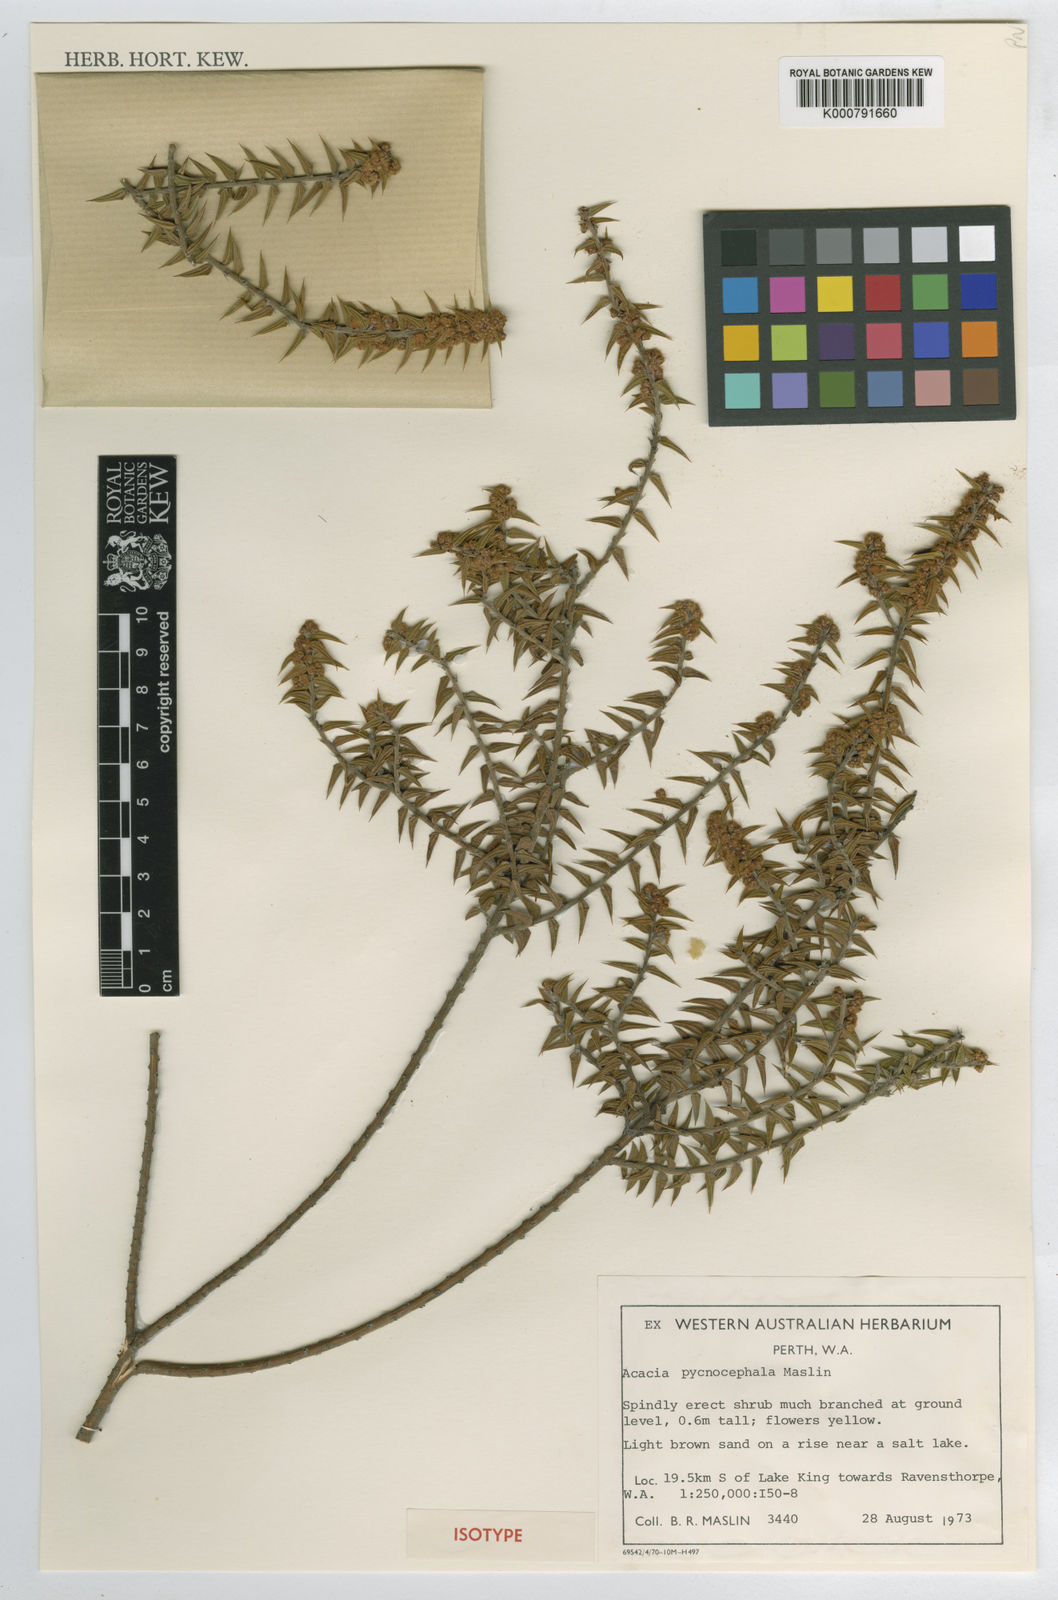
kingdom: Plantae
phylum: Tracheophyta
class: Magnoliopsida
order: Fabales
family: Fabaceae
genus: Acacia
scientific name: Acacia pycnocephala
